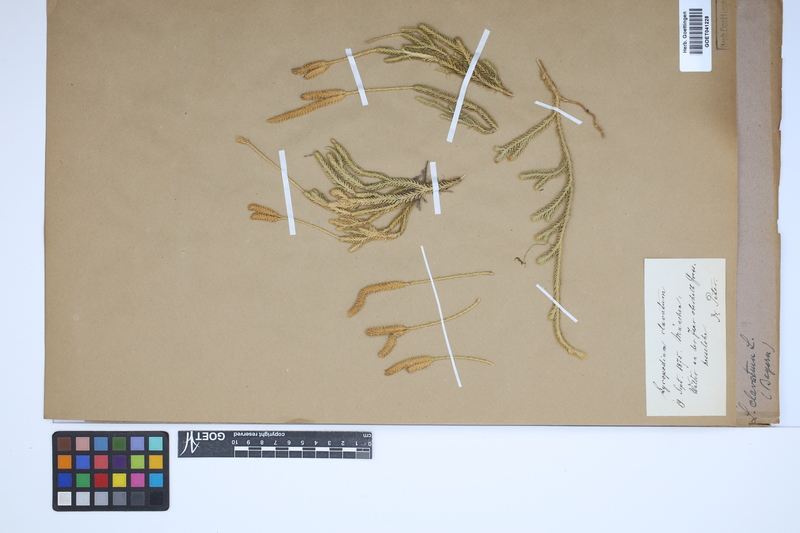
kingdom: Plantae
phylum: Tracheophyta
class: Lycopodiopsida
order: Lycopodiales
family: Lycopodiaceae
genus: Lycopodium
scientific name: Lycopodium clavatum
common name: Stag's-horn clubmoss
